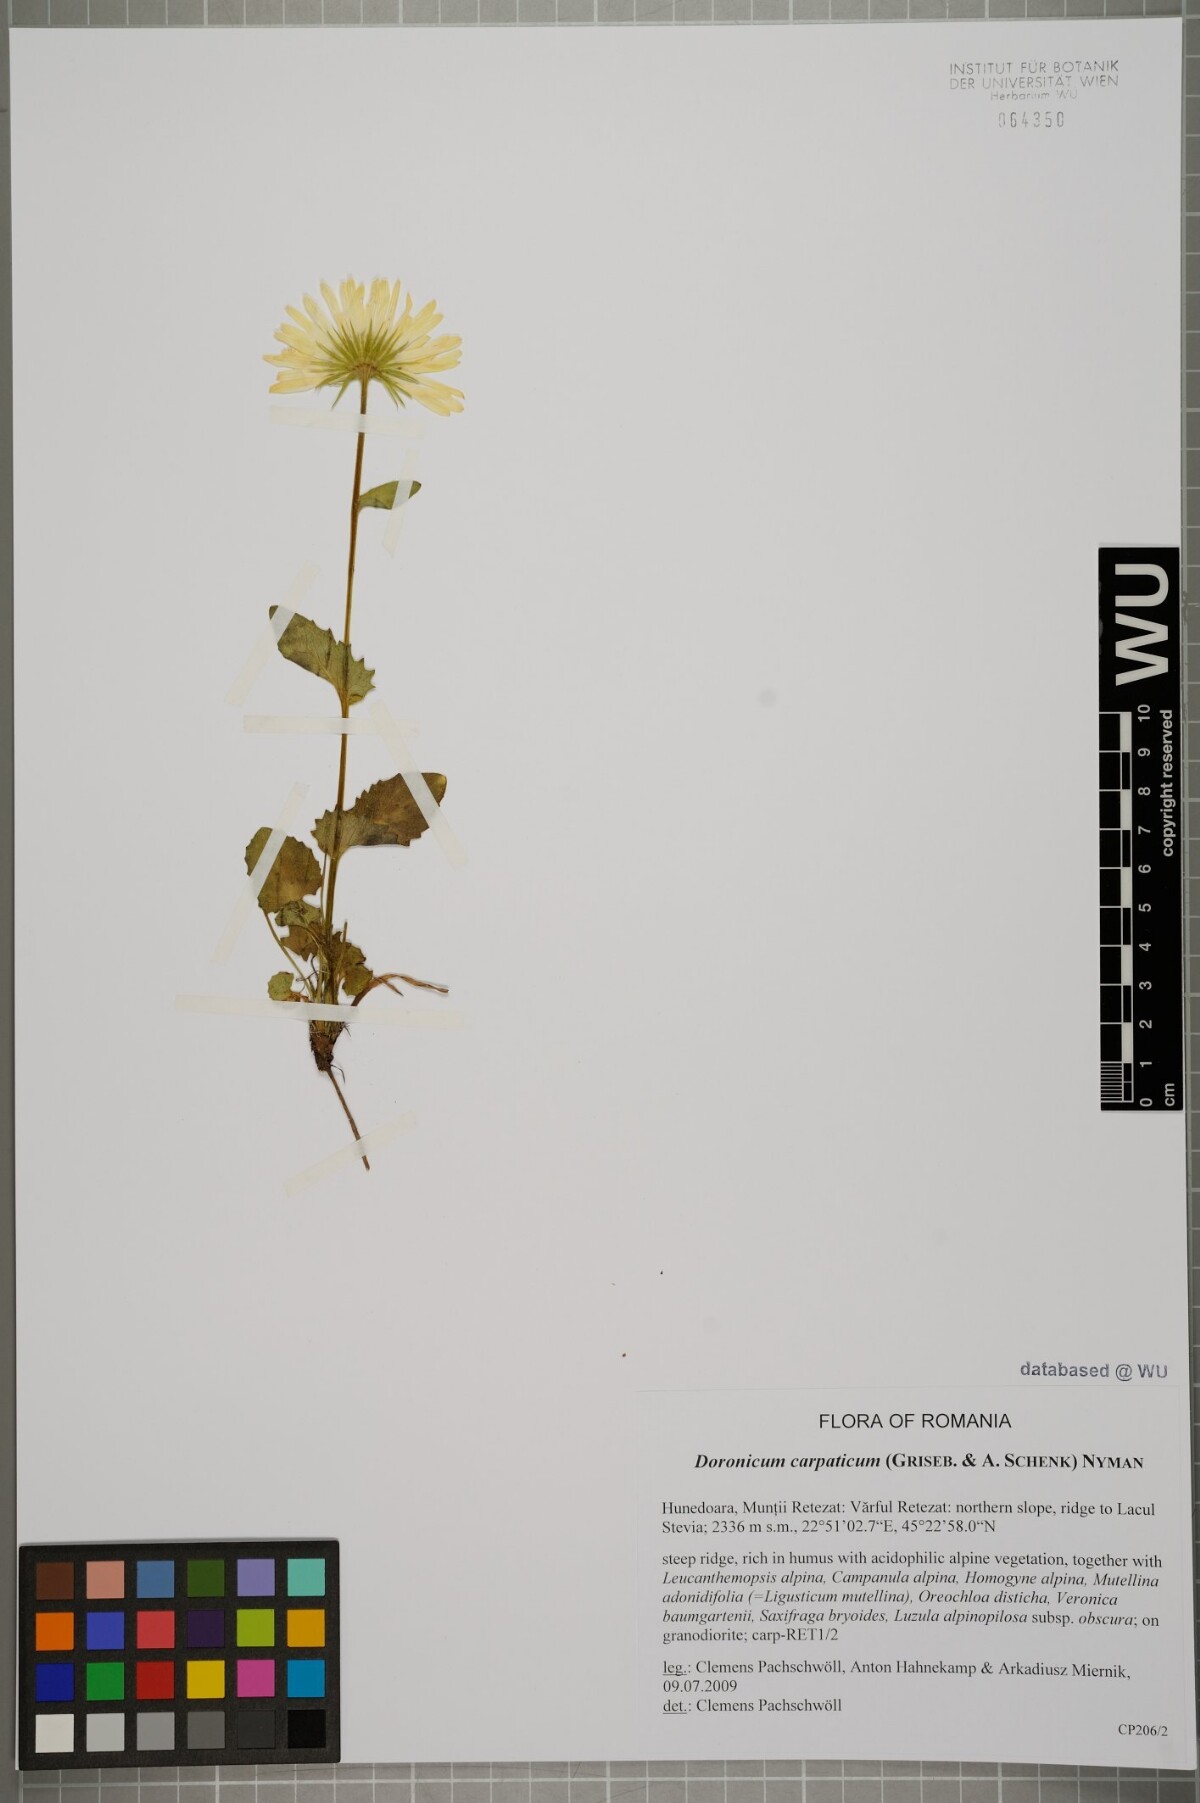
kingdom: Plantae
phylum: Tracheophyta
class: Magnoliopsida
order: Asterales
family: Asteraceae
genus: Doronicum
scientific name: Doronicum carpaticum
